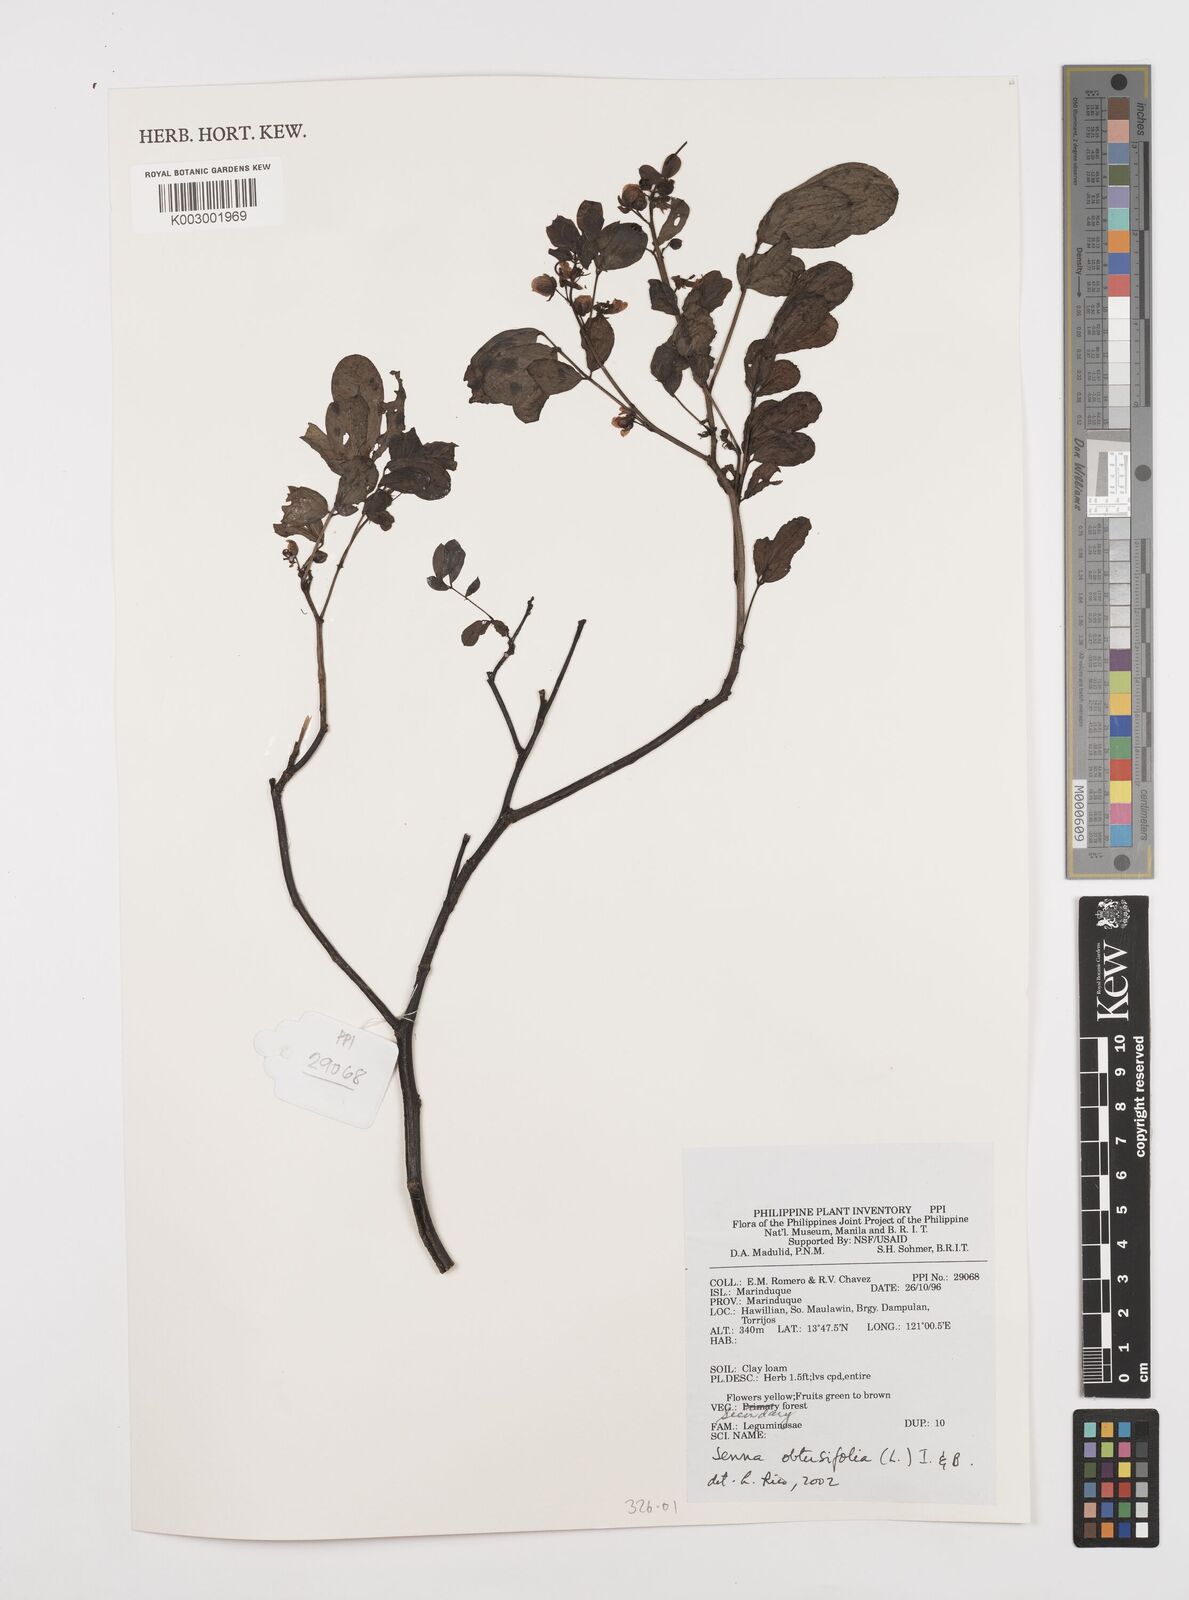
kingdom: Plantae
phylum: Tracheophyta
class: Magnoliopsida
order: Fabales
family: Fabaceae
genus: Senna
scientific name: Senna occidentalis
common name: Septicweed
